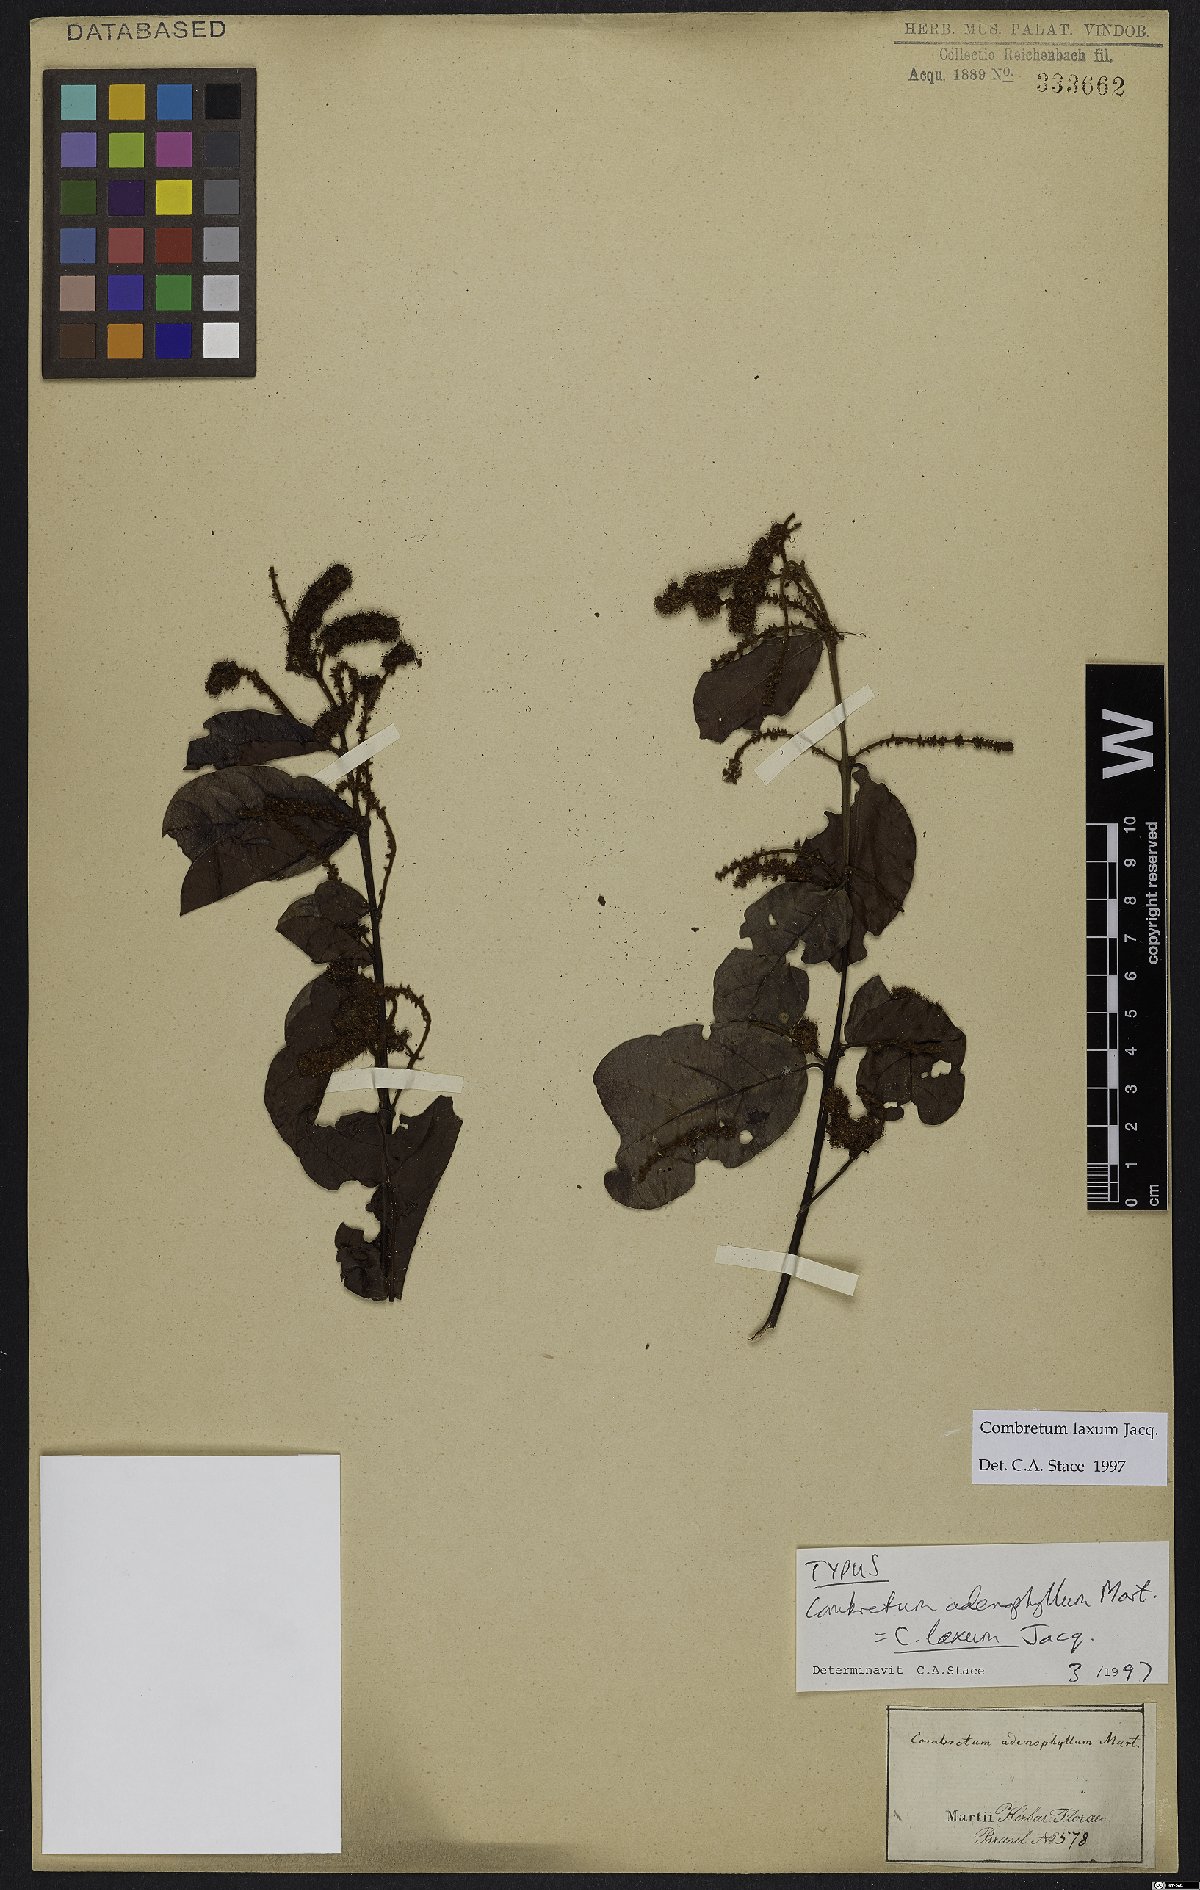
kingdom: Plantae
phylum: Tracheophyta
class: Magnoliopsida
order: Myrtales
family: Combretaceae
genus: Combretum
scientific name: Combretum laxum
